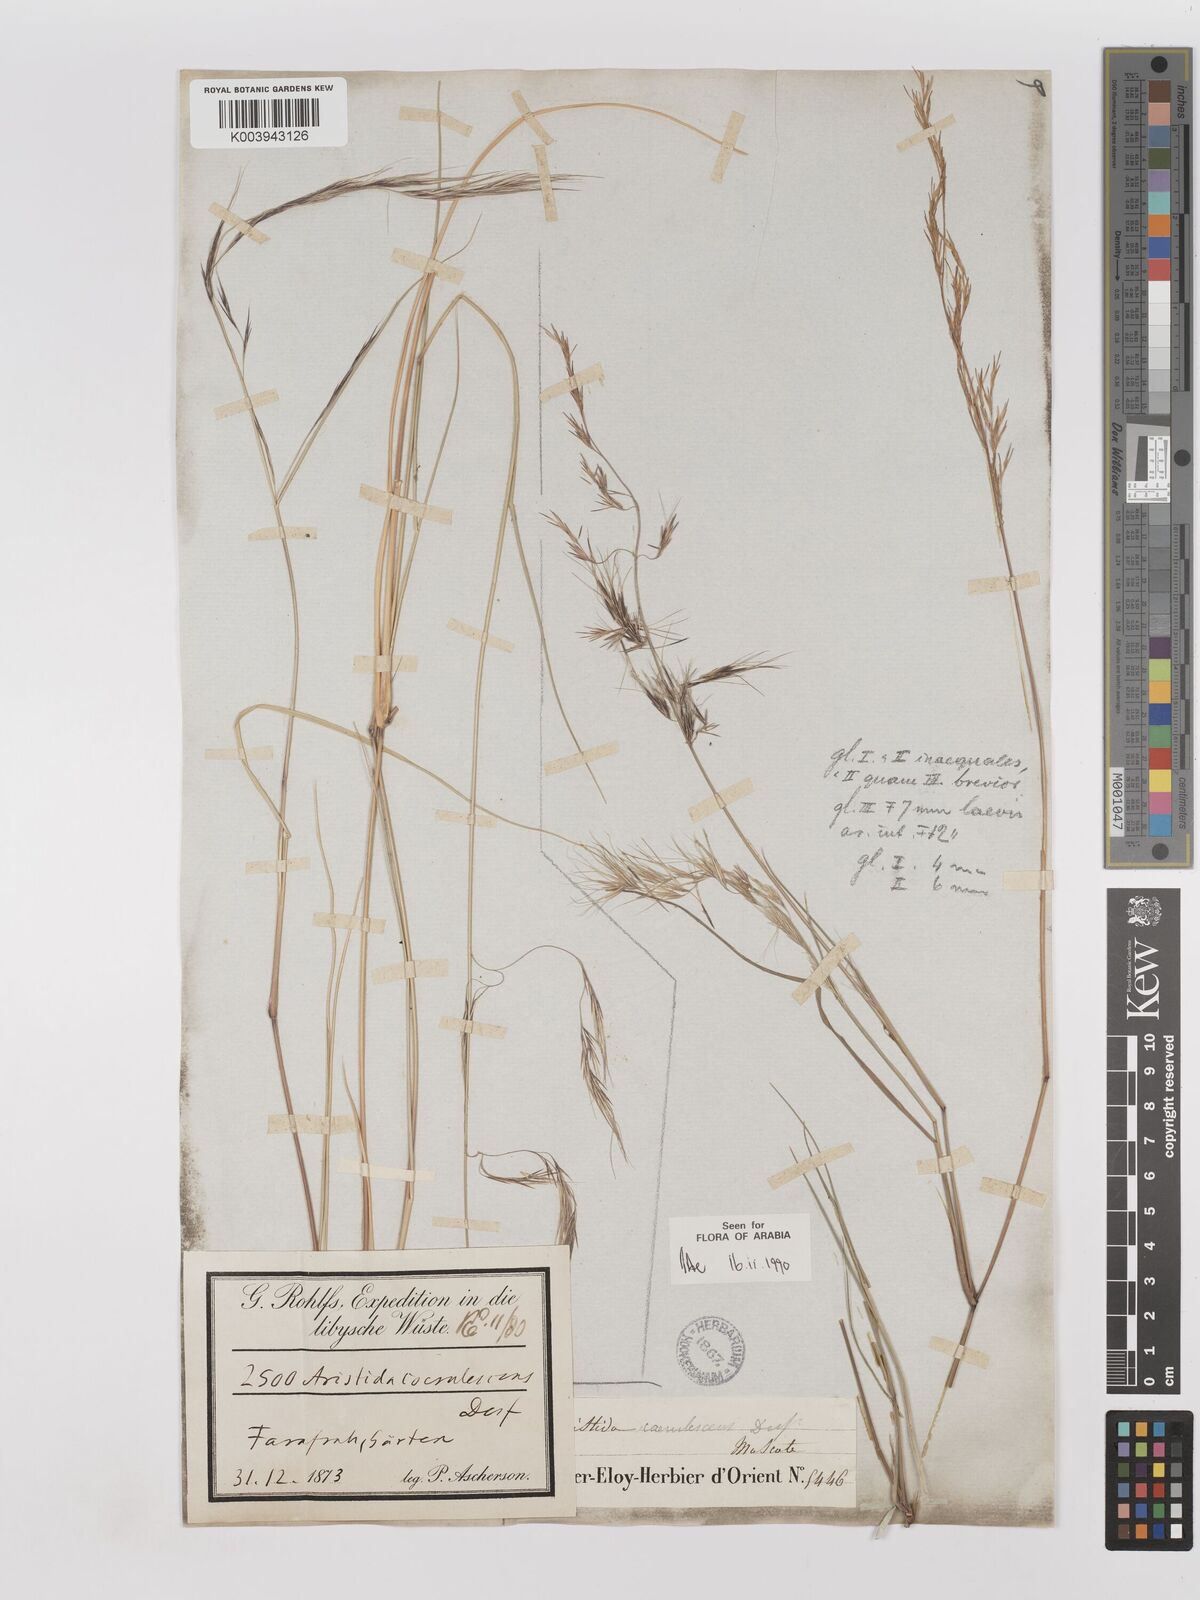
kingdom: Plantae
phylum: Tracheophyta
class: Liliopsida
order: Poales
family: Poaceae
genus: Aristida
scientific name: Aristida adscensionis
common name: Sixweeks threeawn
